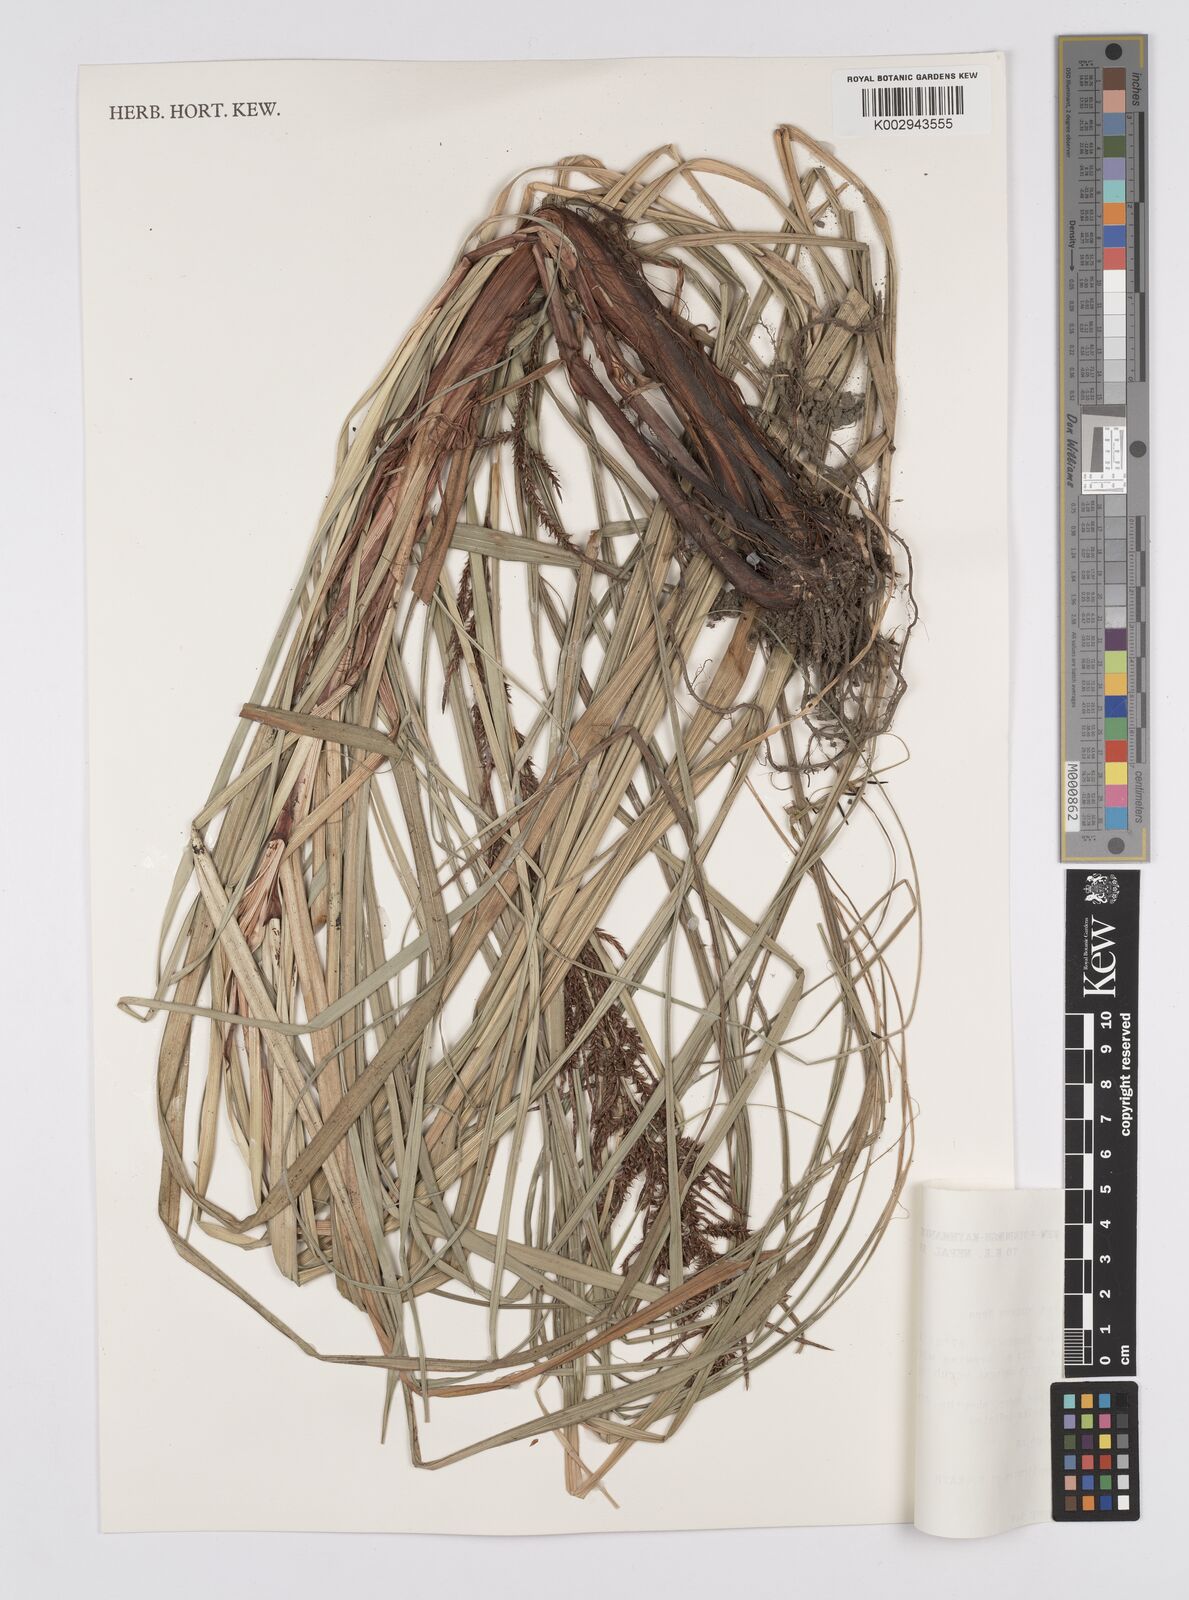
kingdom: Plantae
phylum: Tracheophyta
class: Liliopsida
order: Poales
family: Cyperaceae
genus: Carex
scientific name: Carex baccans
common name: Crimson seeded sedge
